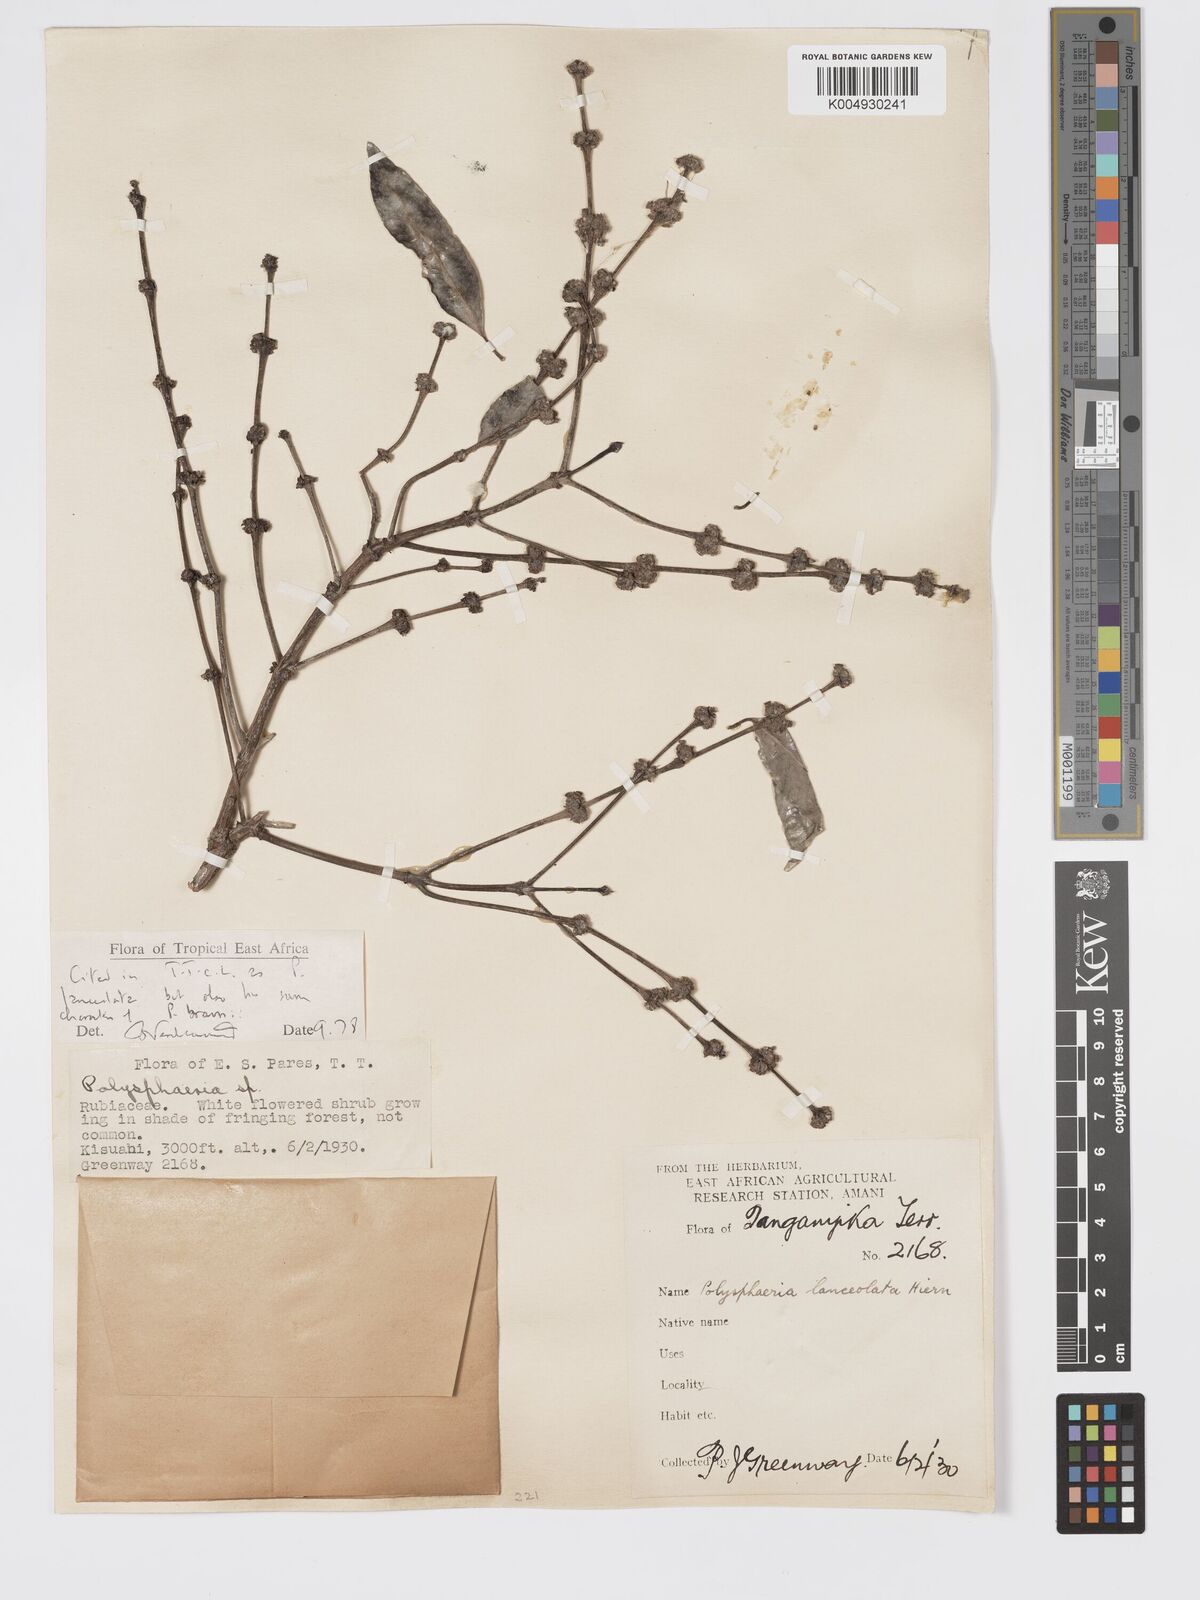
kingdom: Plantae
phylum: Tracheophyta
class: Magnoliopsida
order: Gentianales
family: Rubiaceae
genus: Polysphaeria
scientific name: Polysphaeria lanceolata
